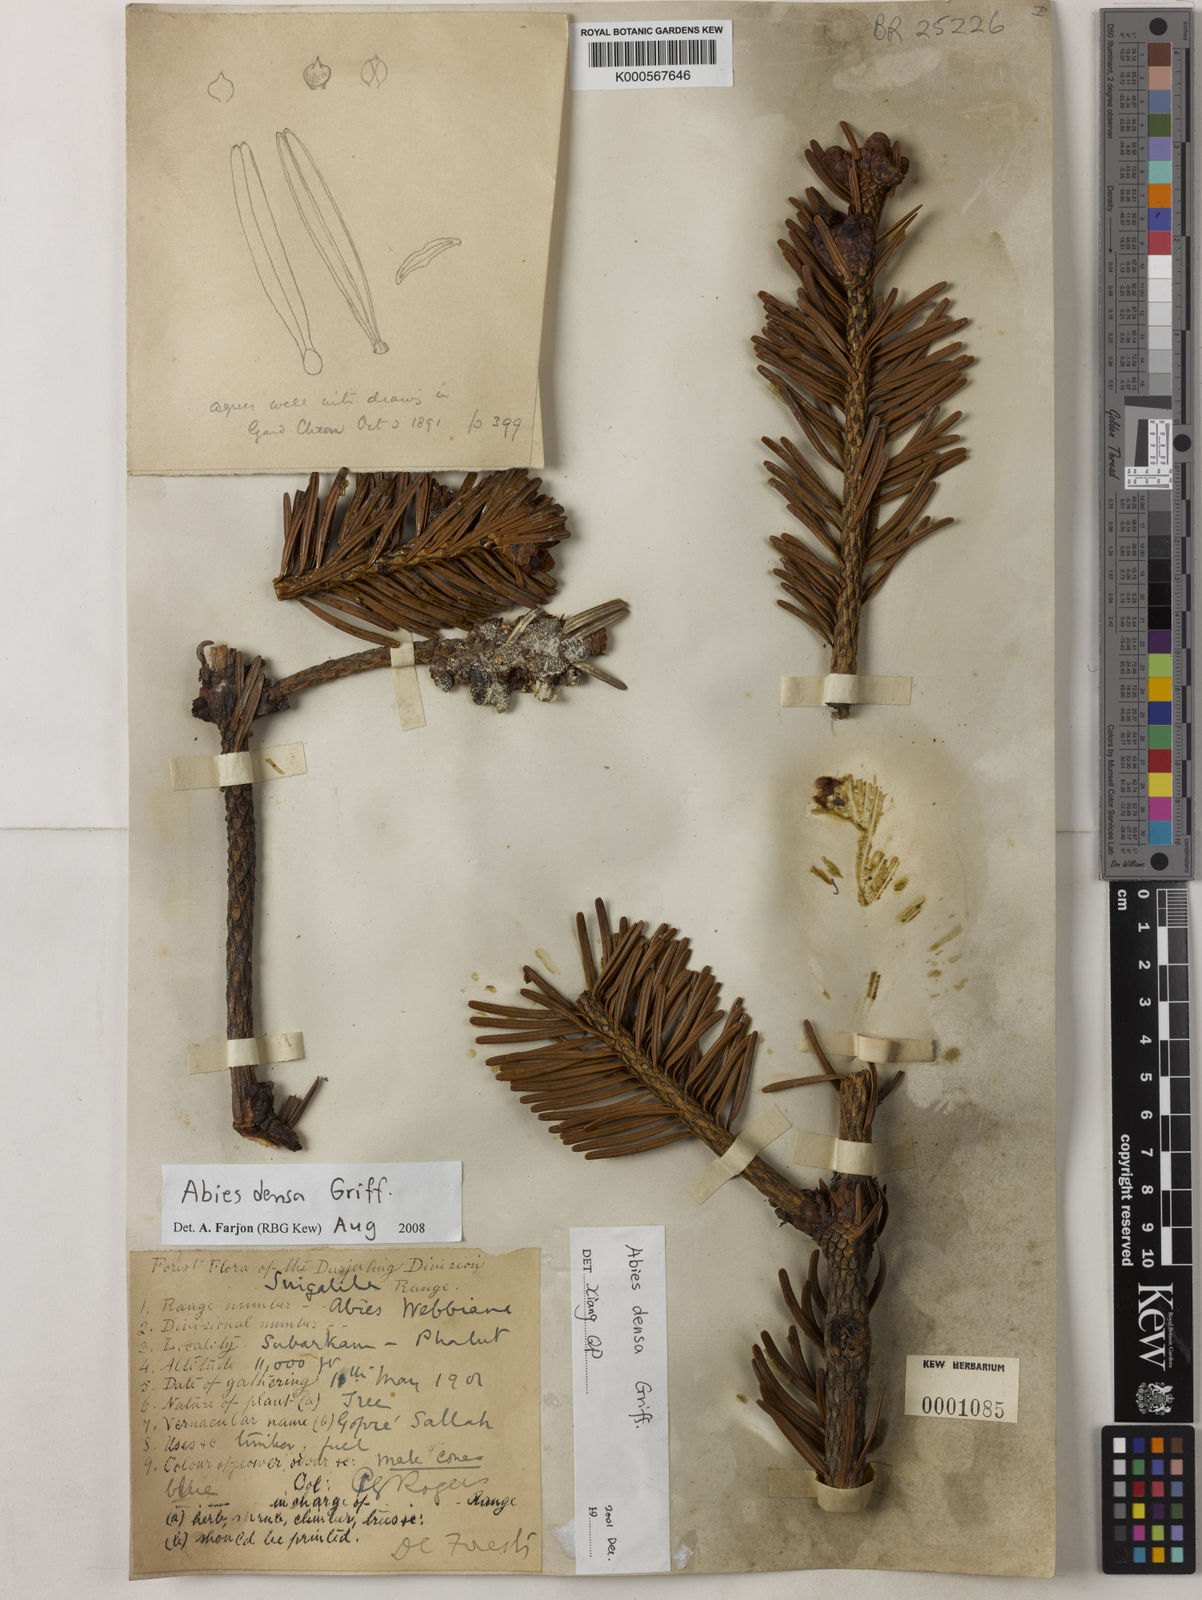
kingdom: Plantae
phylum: Tracheophyta
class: Pinopsida
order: Pinales
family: Pinaceae
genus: Abies
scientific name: Abies densa
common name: Sikkim fir
